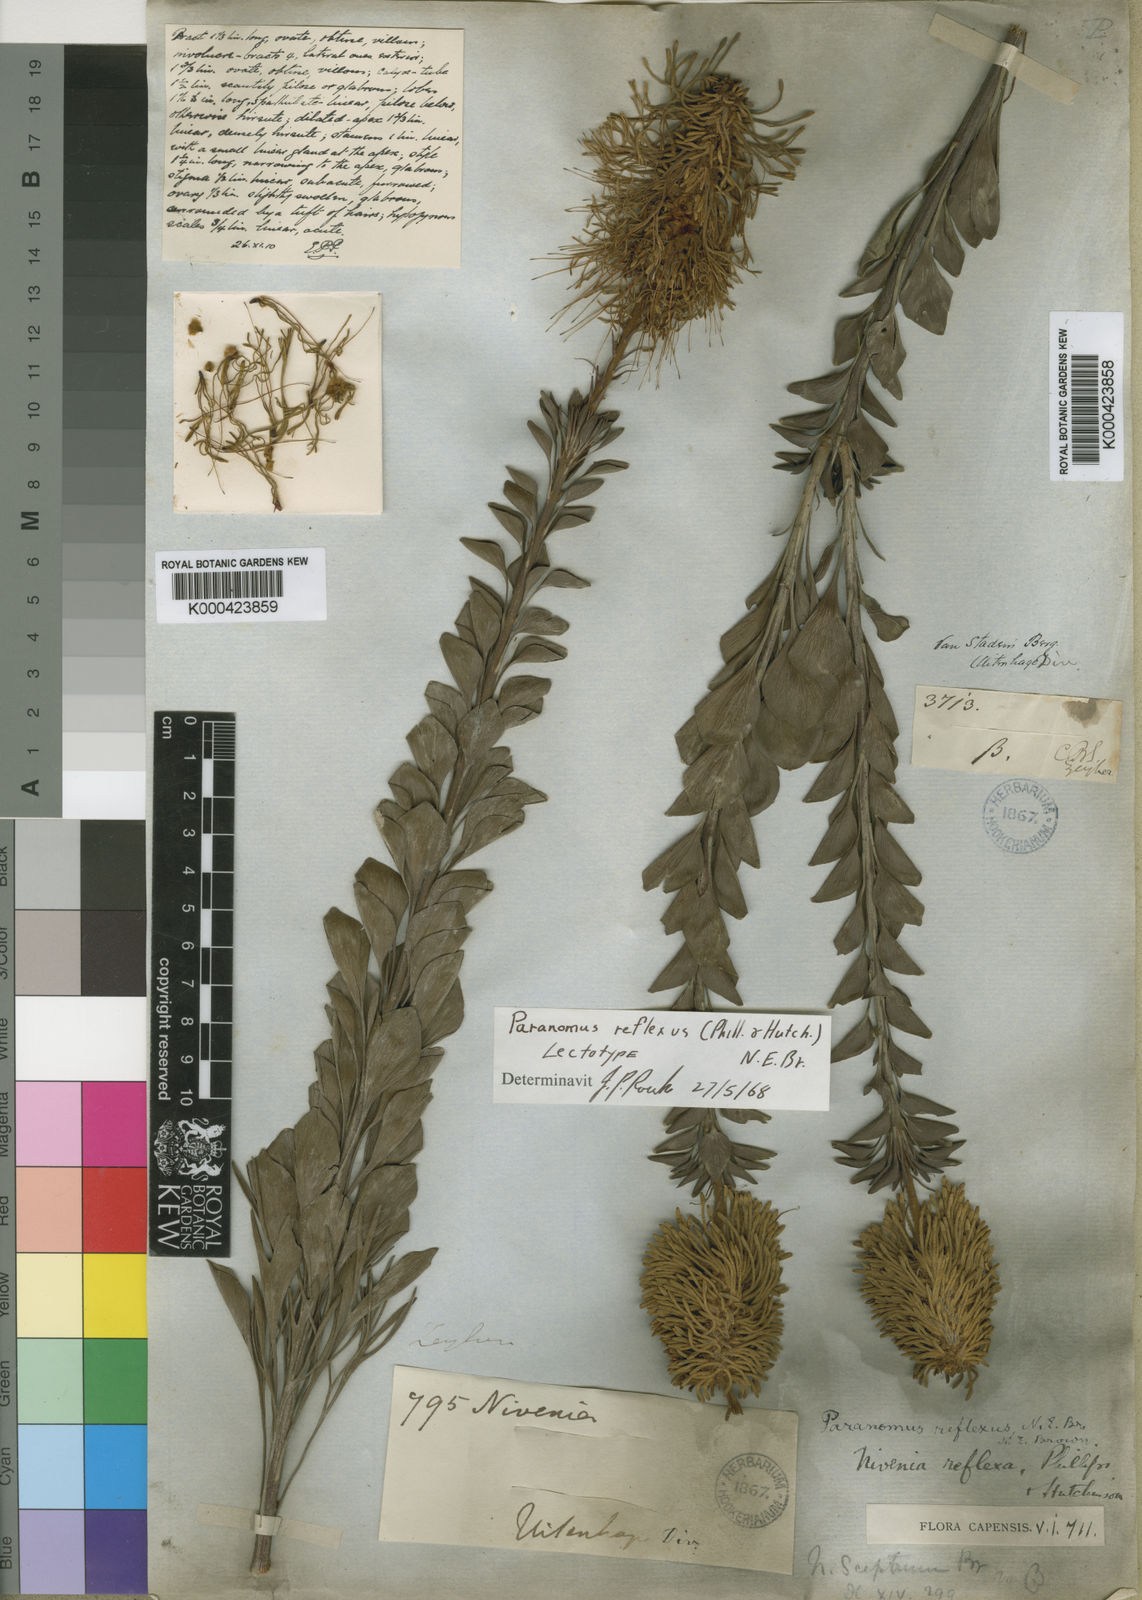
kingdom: Plantae
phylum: Tracheophyta
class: Magnoliopsida
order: Proteales
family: Proteaceae
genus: Paranomus
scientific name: Paranomus reflexus
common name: Van staden's sceptre
